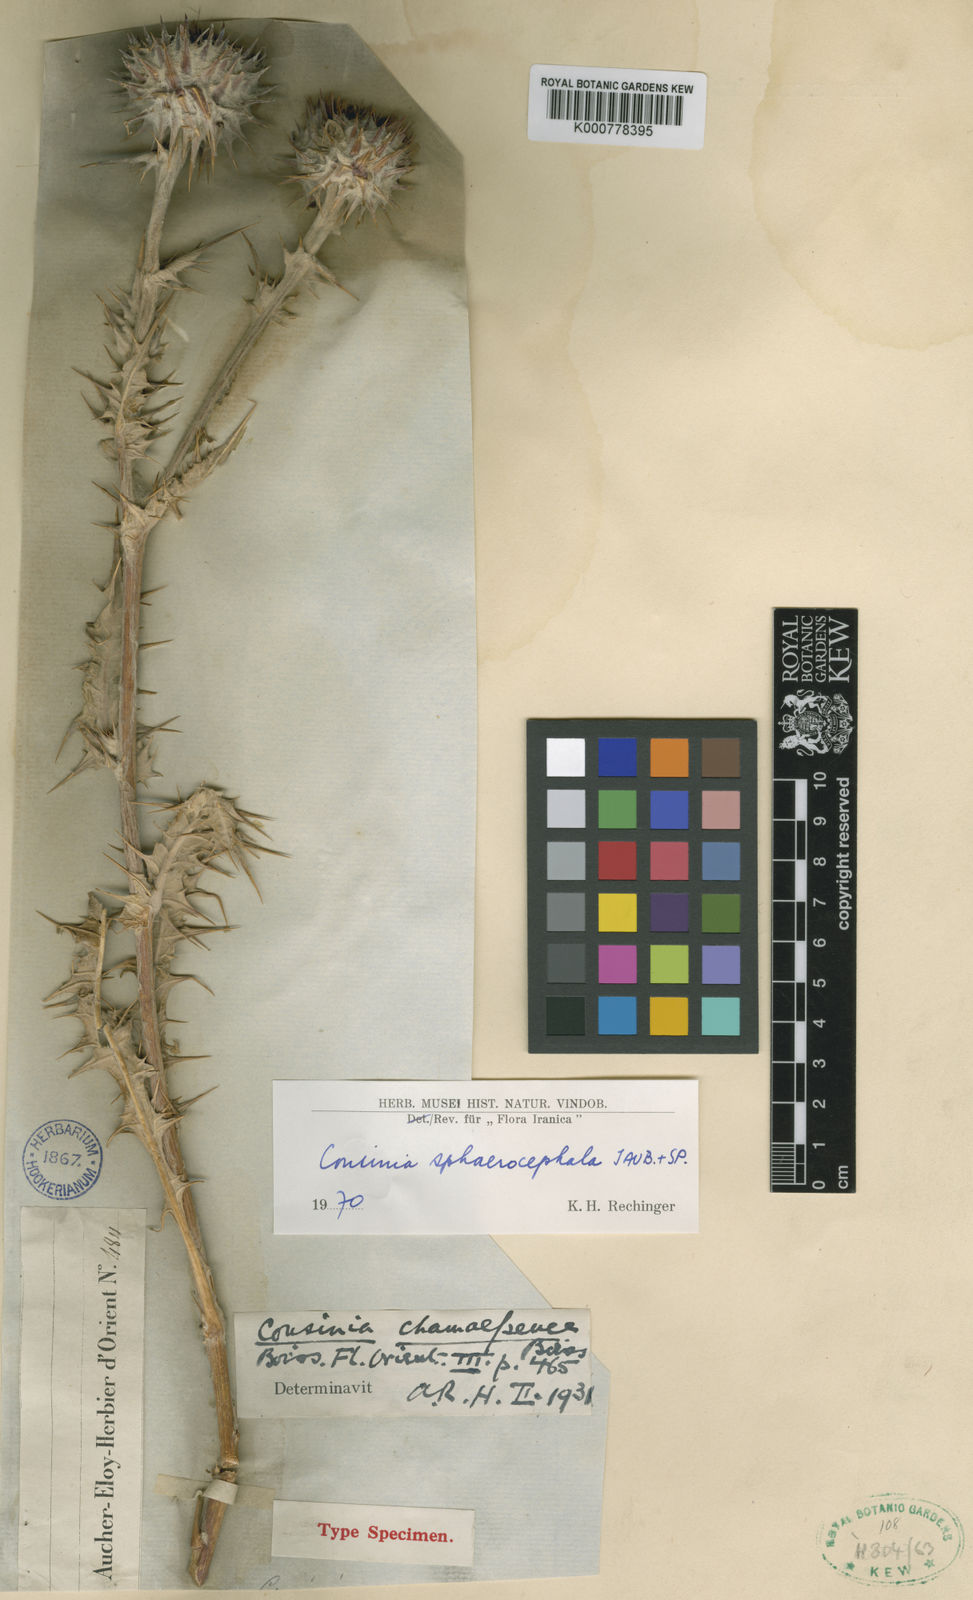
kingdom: Plantae
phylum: Tracheophyta
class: Magnoliopsida
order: Asterales
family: Asteraceae
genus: Cousinia
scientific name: Cousinia sphaerocephala
